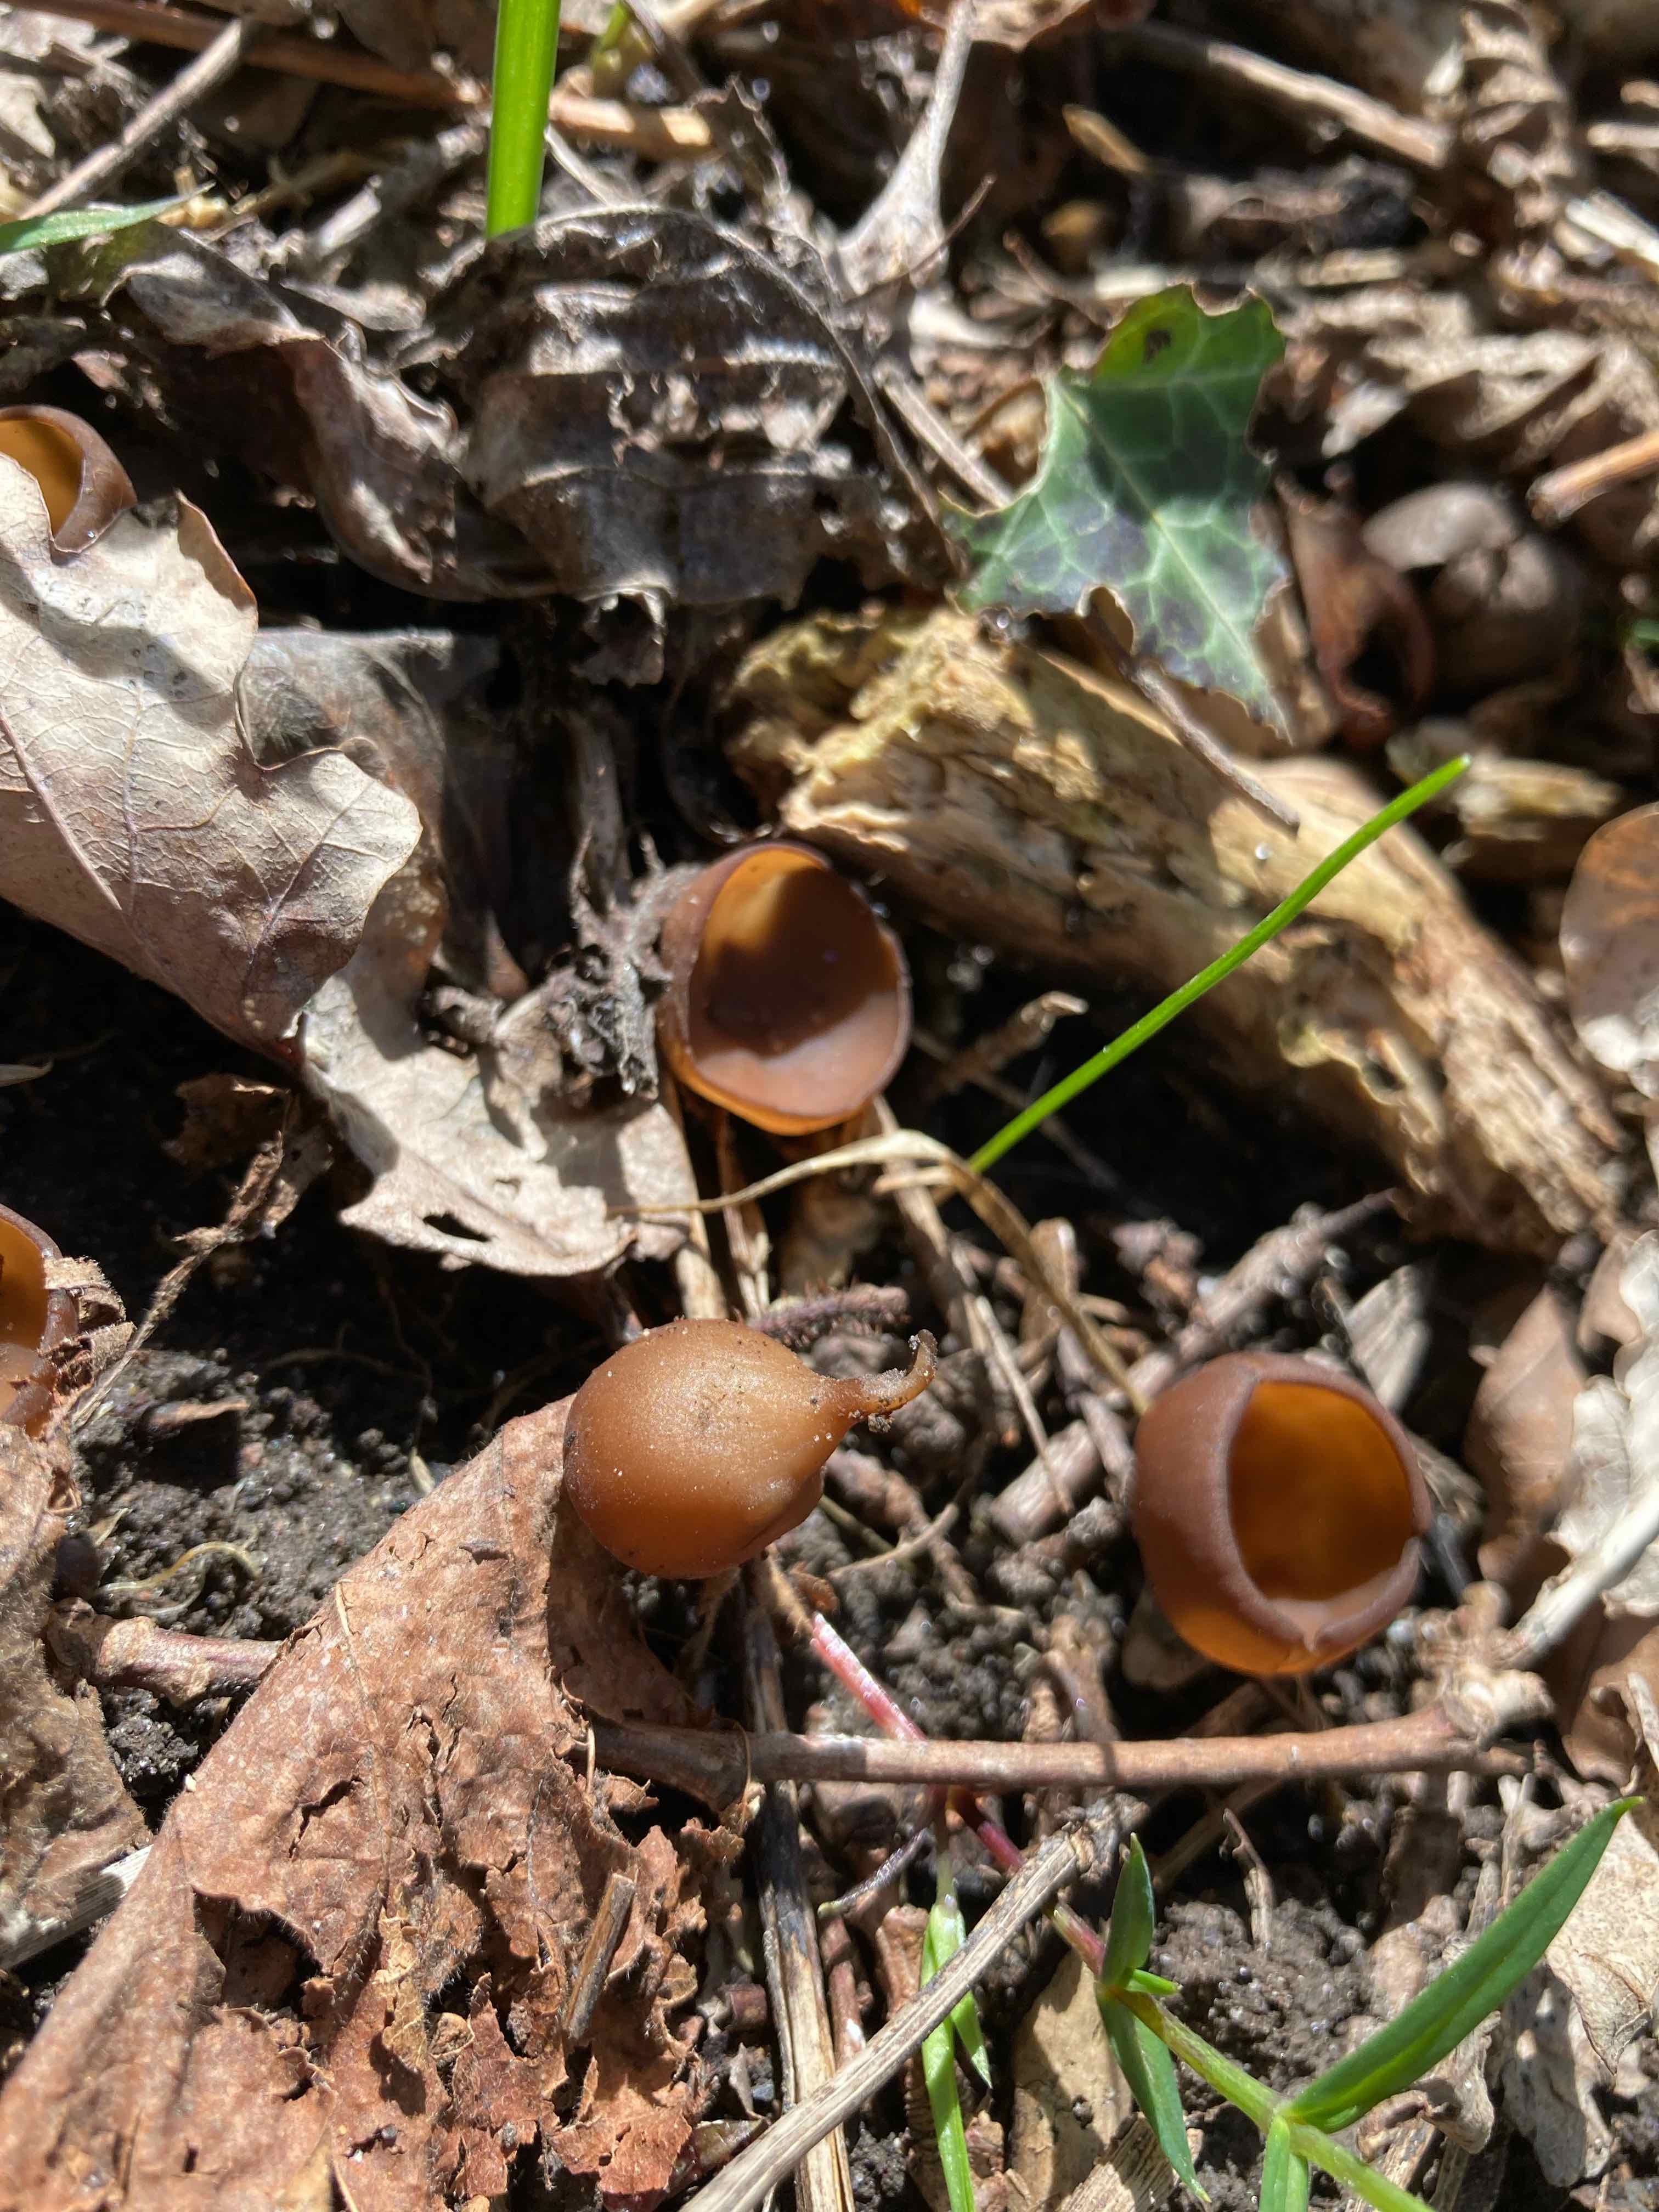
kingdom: Fungi
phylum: Ascomycota
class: Leotiomycetes
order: Helotiales
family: Sclerotiniaceae
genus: Dumontinia
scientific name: Dumontinia tuberosa
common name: anemone-knoldskive
